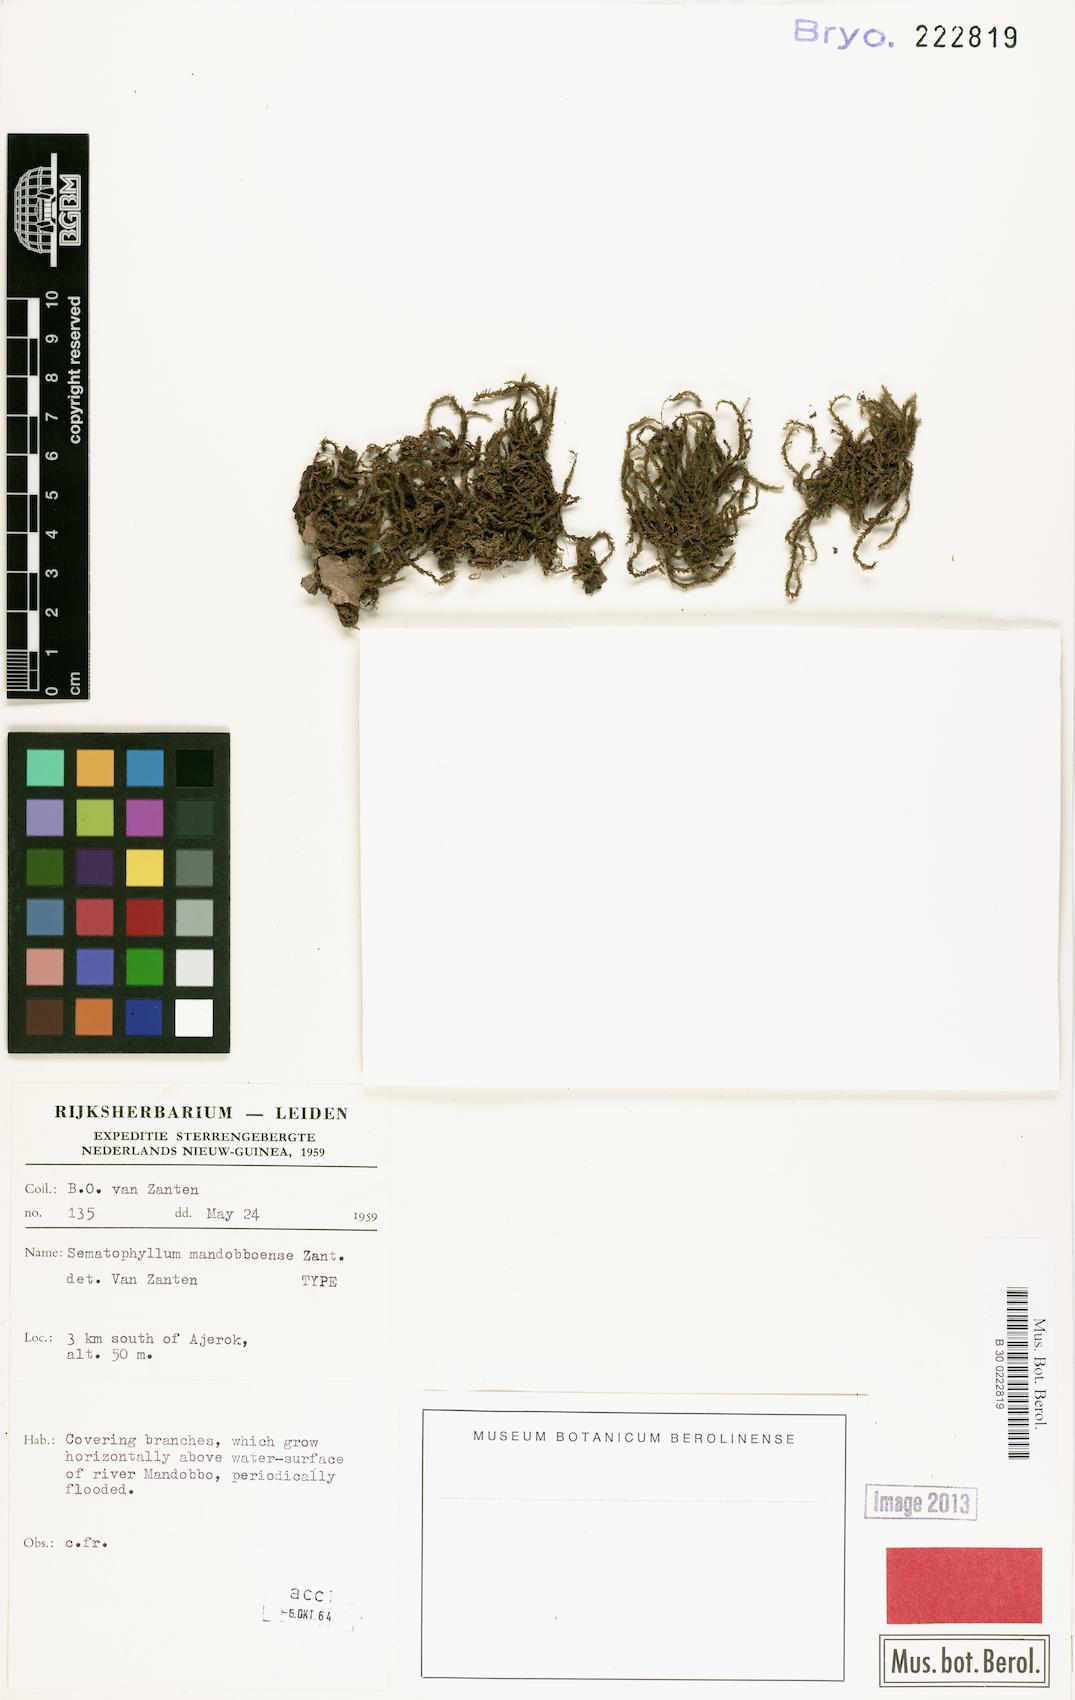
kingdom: Plantae
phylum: Bryophyta
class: Bryopsida
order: Hypnales
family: Sematophyllaceae
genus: Sematophyllum
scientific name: Sematophyllum mandobboense
